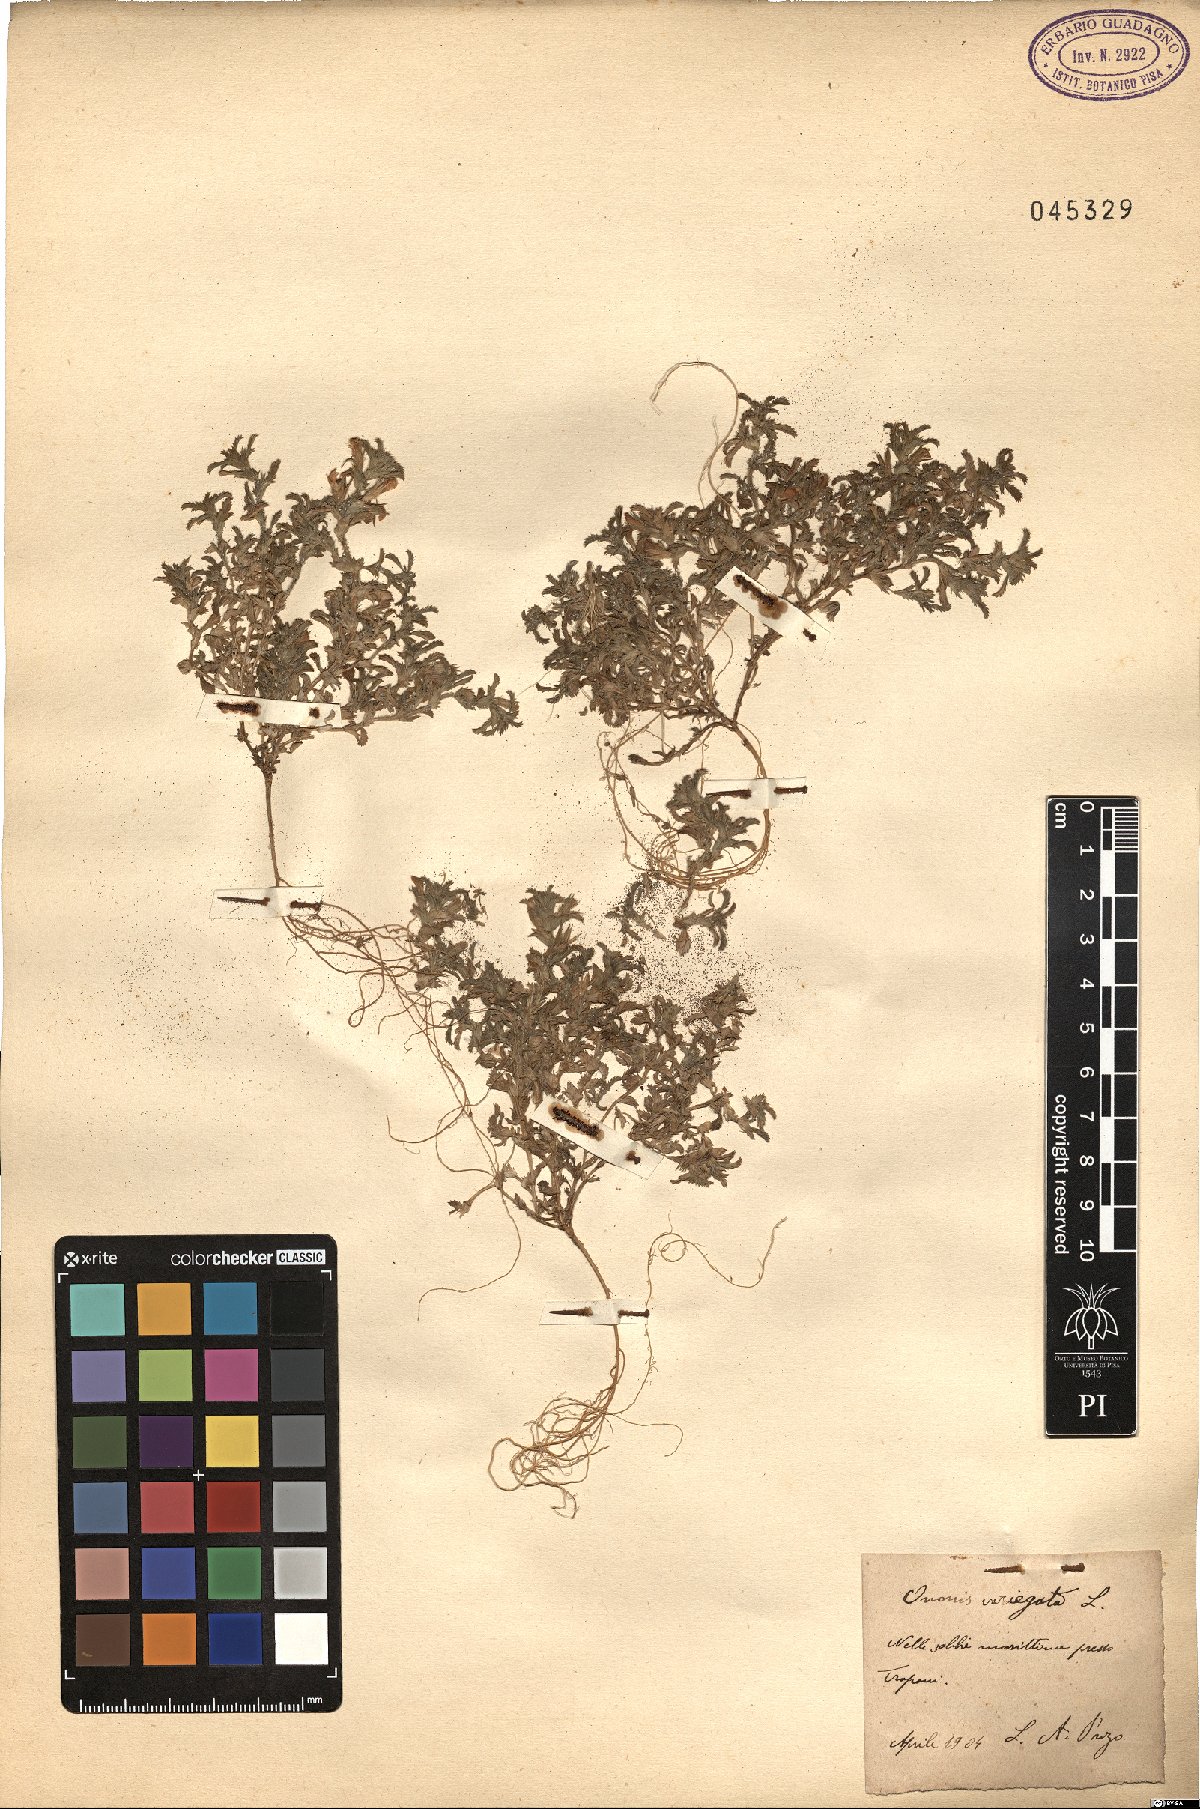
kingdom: Plantae
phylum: Tracheophyta
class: Magnoliopsida
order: Fabales
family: Fabaceae
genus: Ononis
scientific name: Ononis variegata
